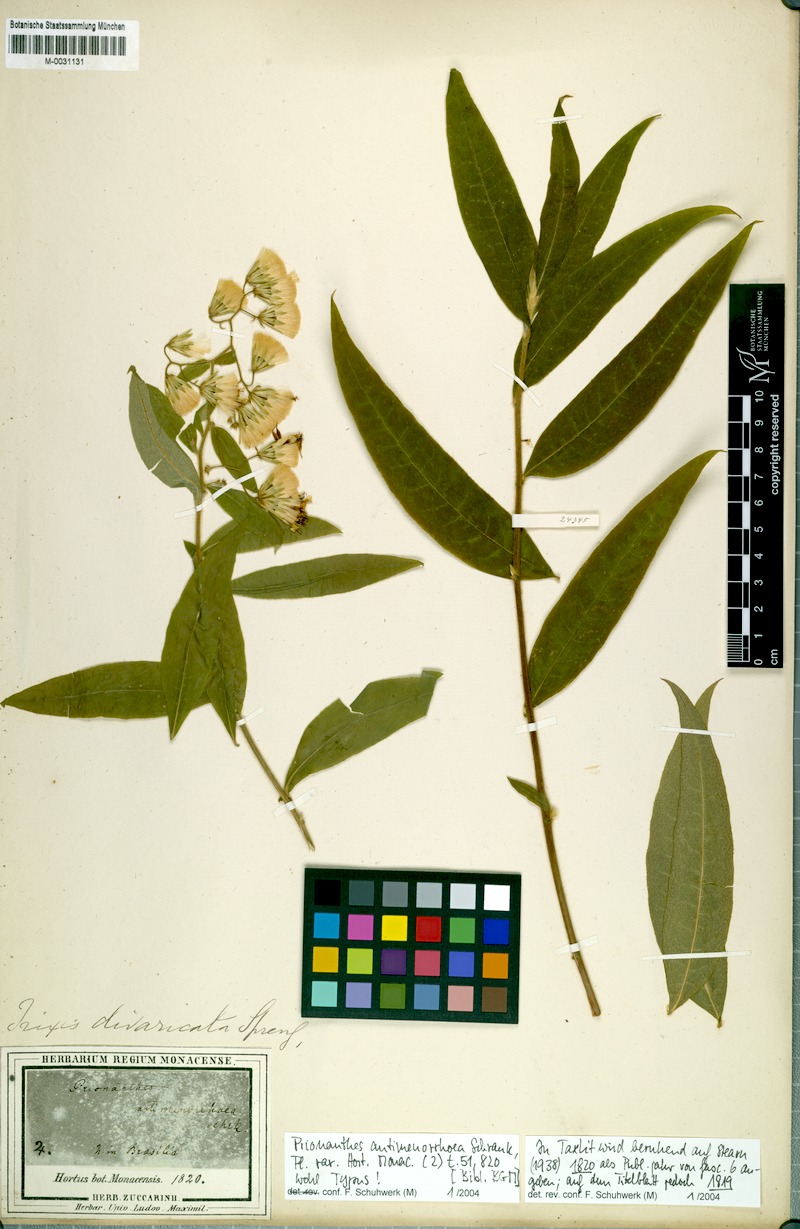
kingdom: Plantae
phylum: Tracheophyta
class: Magnoliopsida
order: Asterales
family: Asteraceae
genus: Trixis
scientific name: Trixis divaricata
